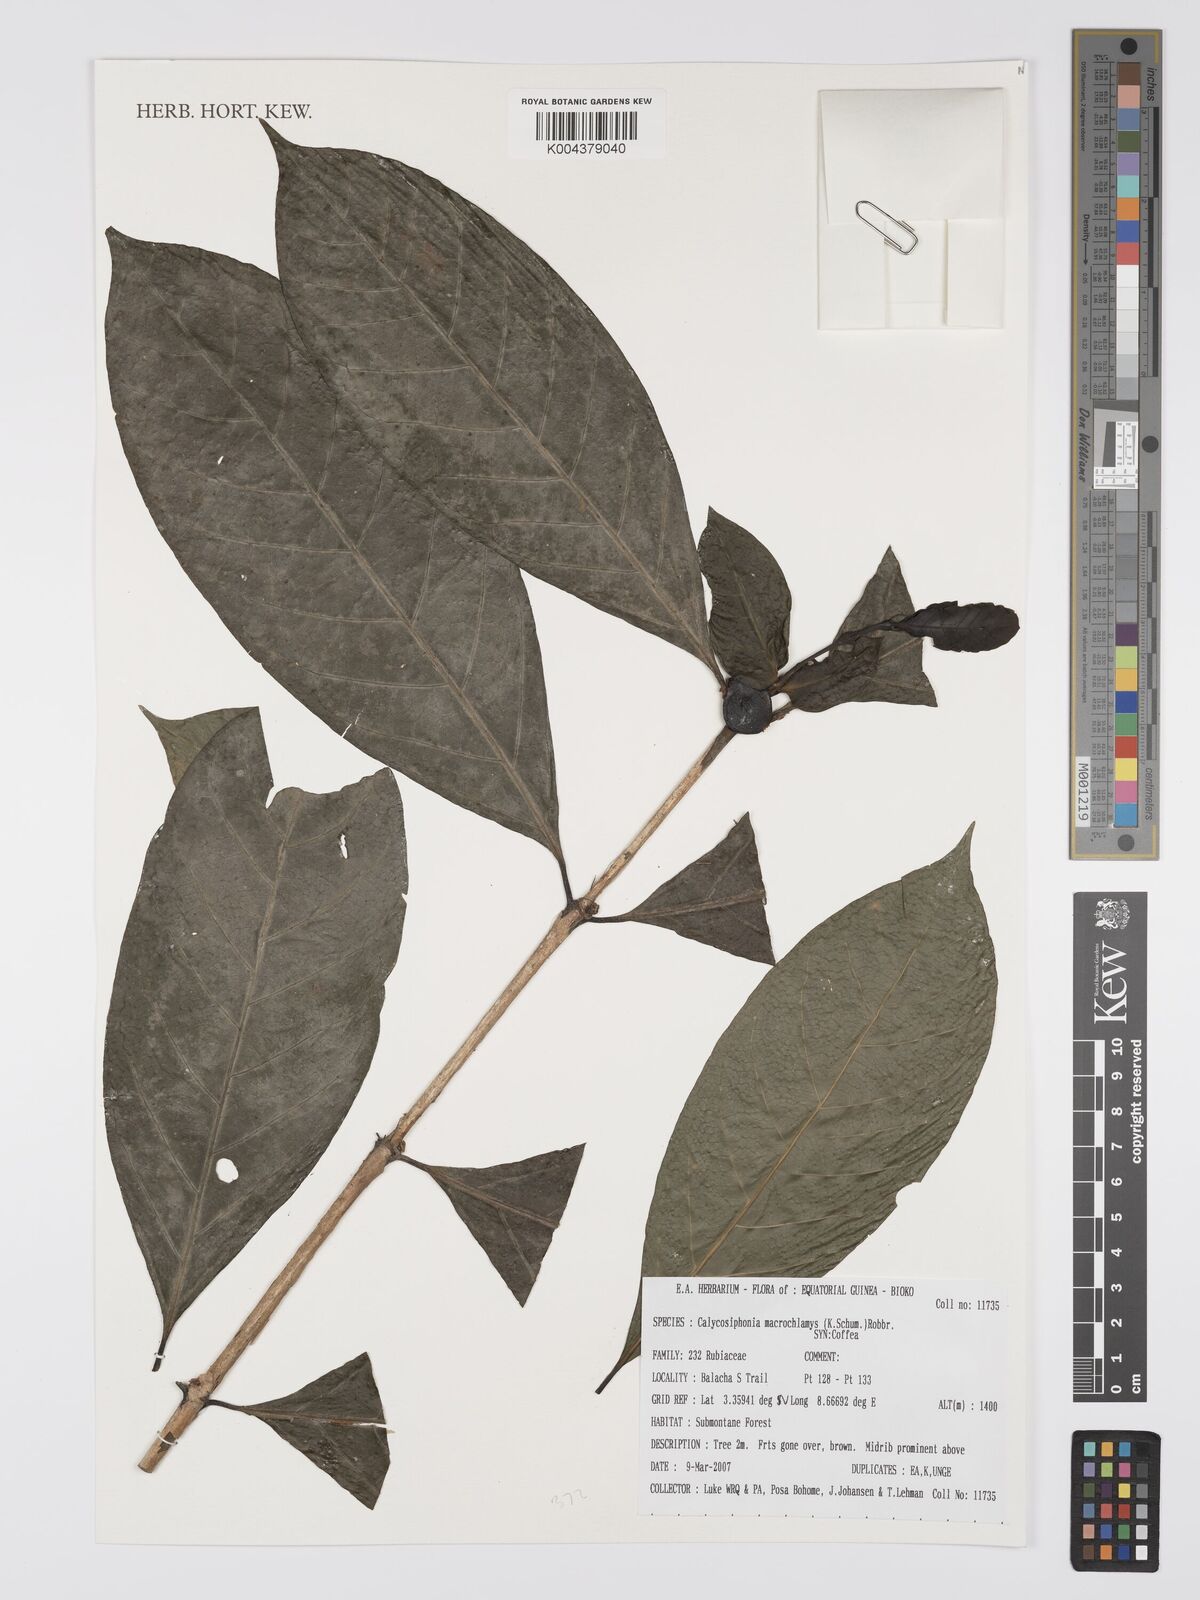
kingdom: Plantae
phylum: Tracheophyta
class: Magnoliopsida
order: Gentianales
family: Rubiaceae
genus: Calycosiphonia
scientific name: Calycosiphonia macrochlamys
